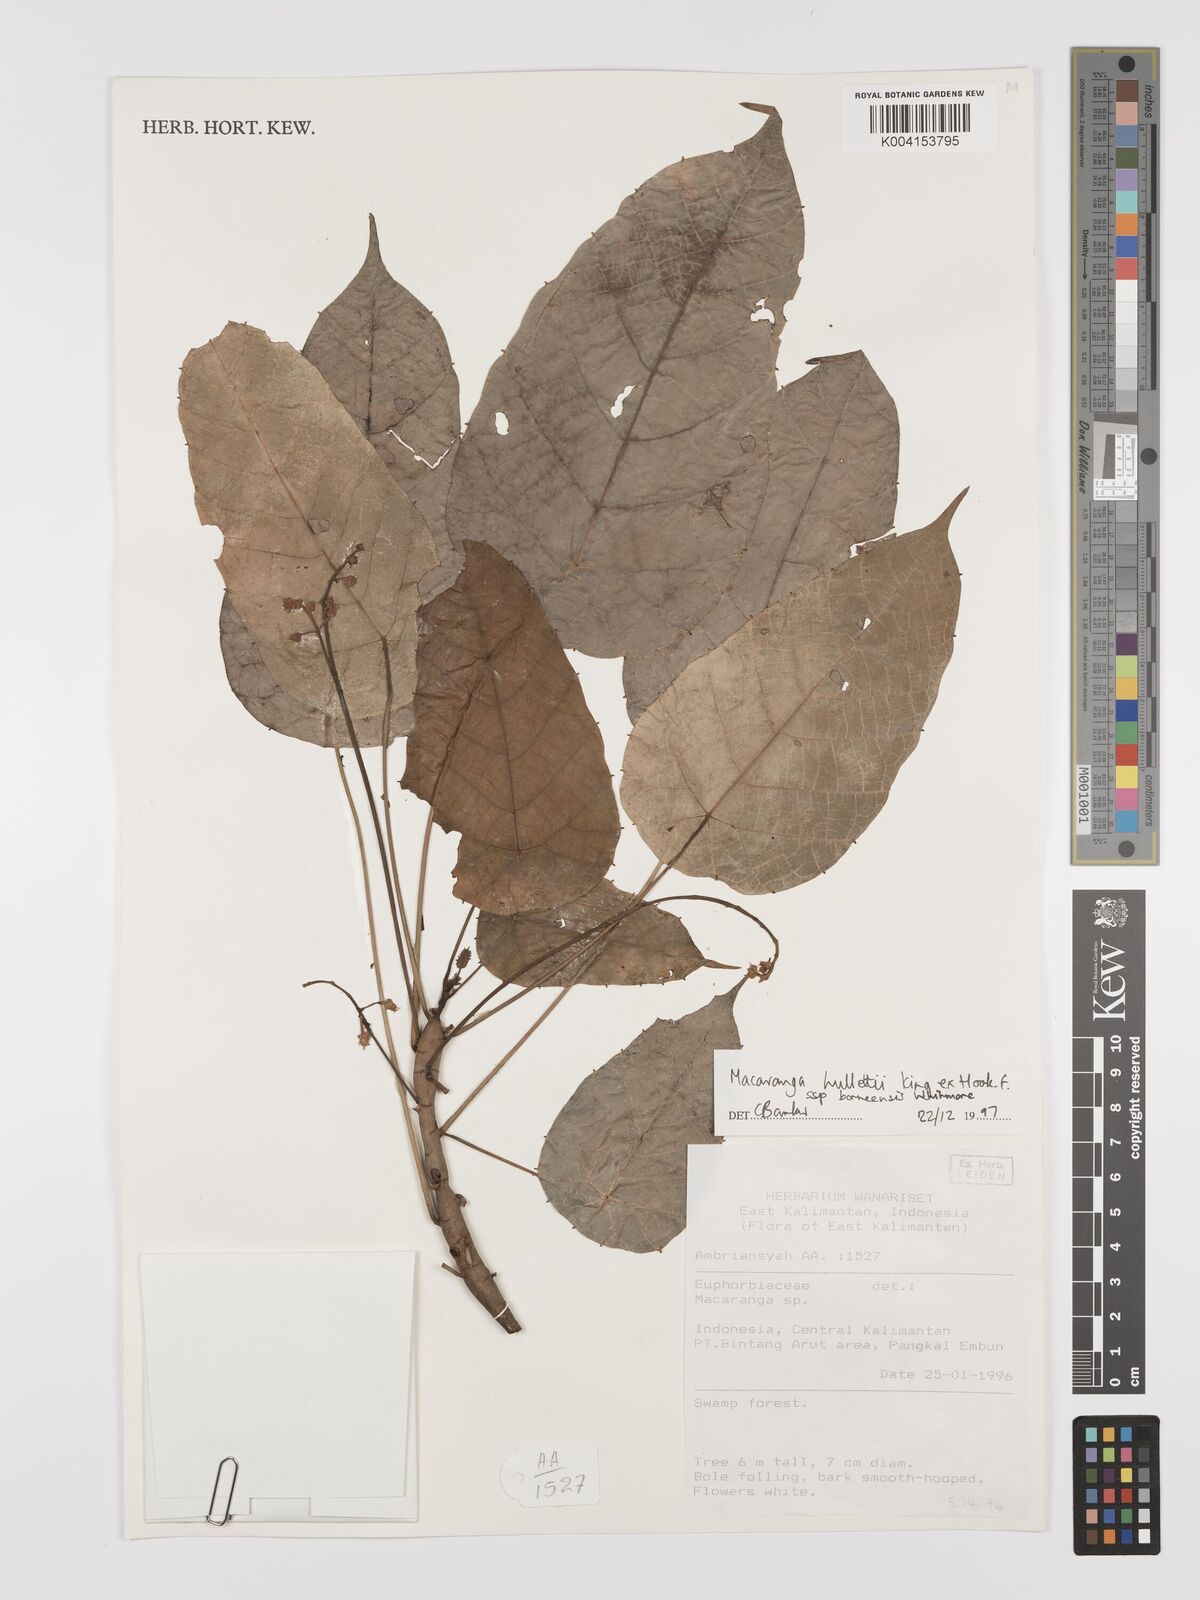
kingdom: Plantae
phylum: Tracheophyta
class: Magnoliopsida
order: Malpighiales
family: Euphorbiaceae
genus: Macaranga
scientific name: Macaranga hullettii
